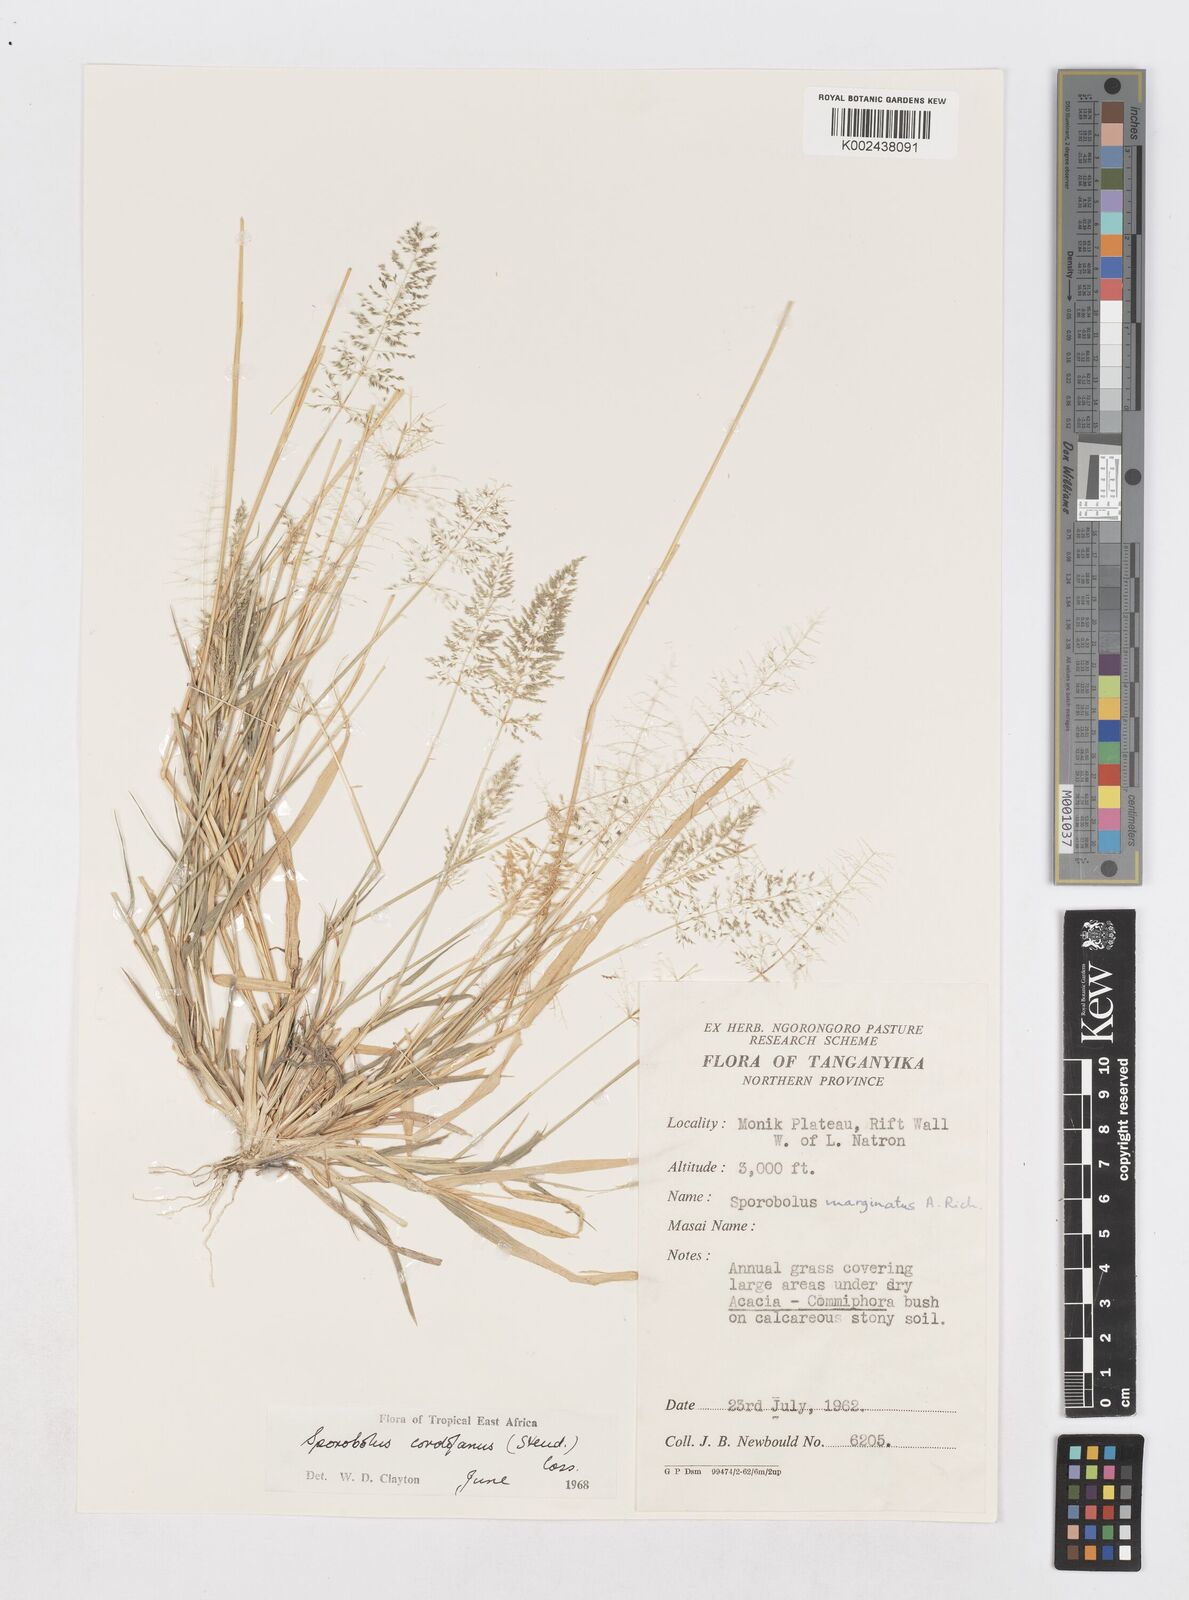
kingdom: Plantae
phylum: Tracheophyta
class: Liliopsida
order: Poales
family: Poaceae
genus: Sporobolus
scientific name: Sporobolus cordofanus
